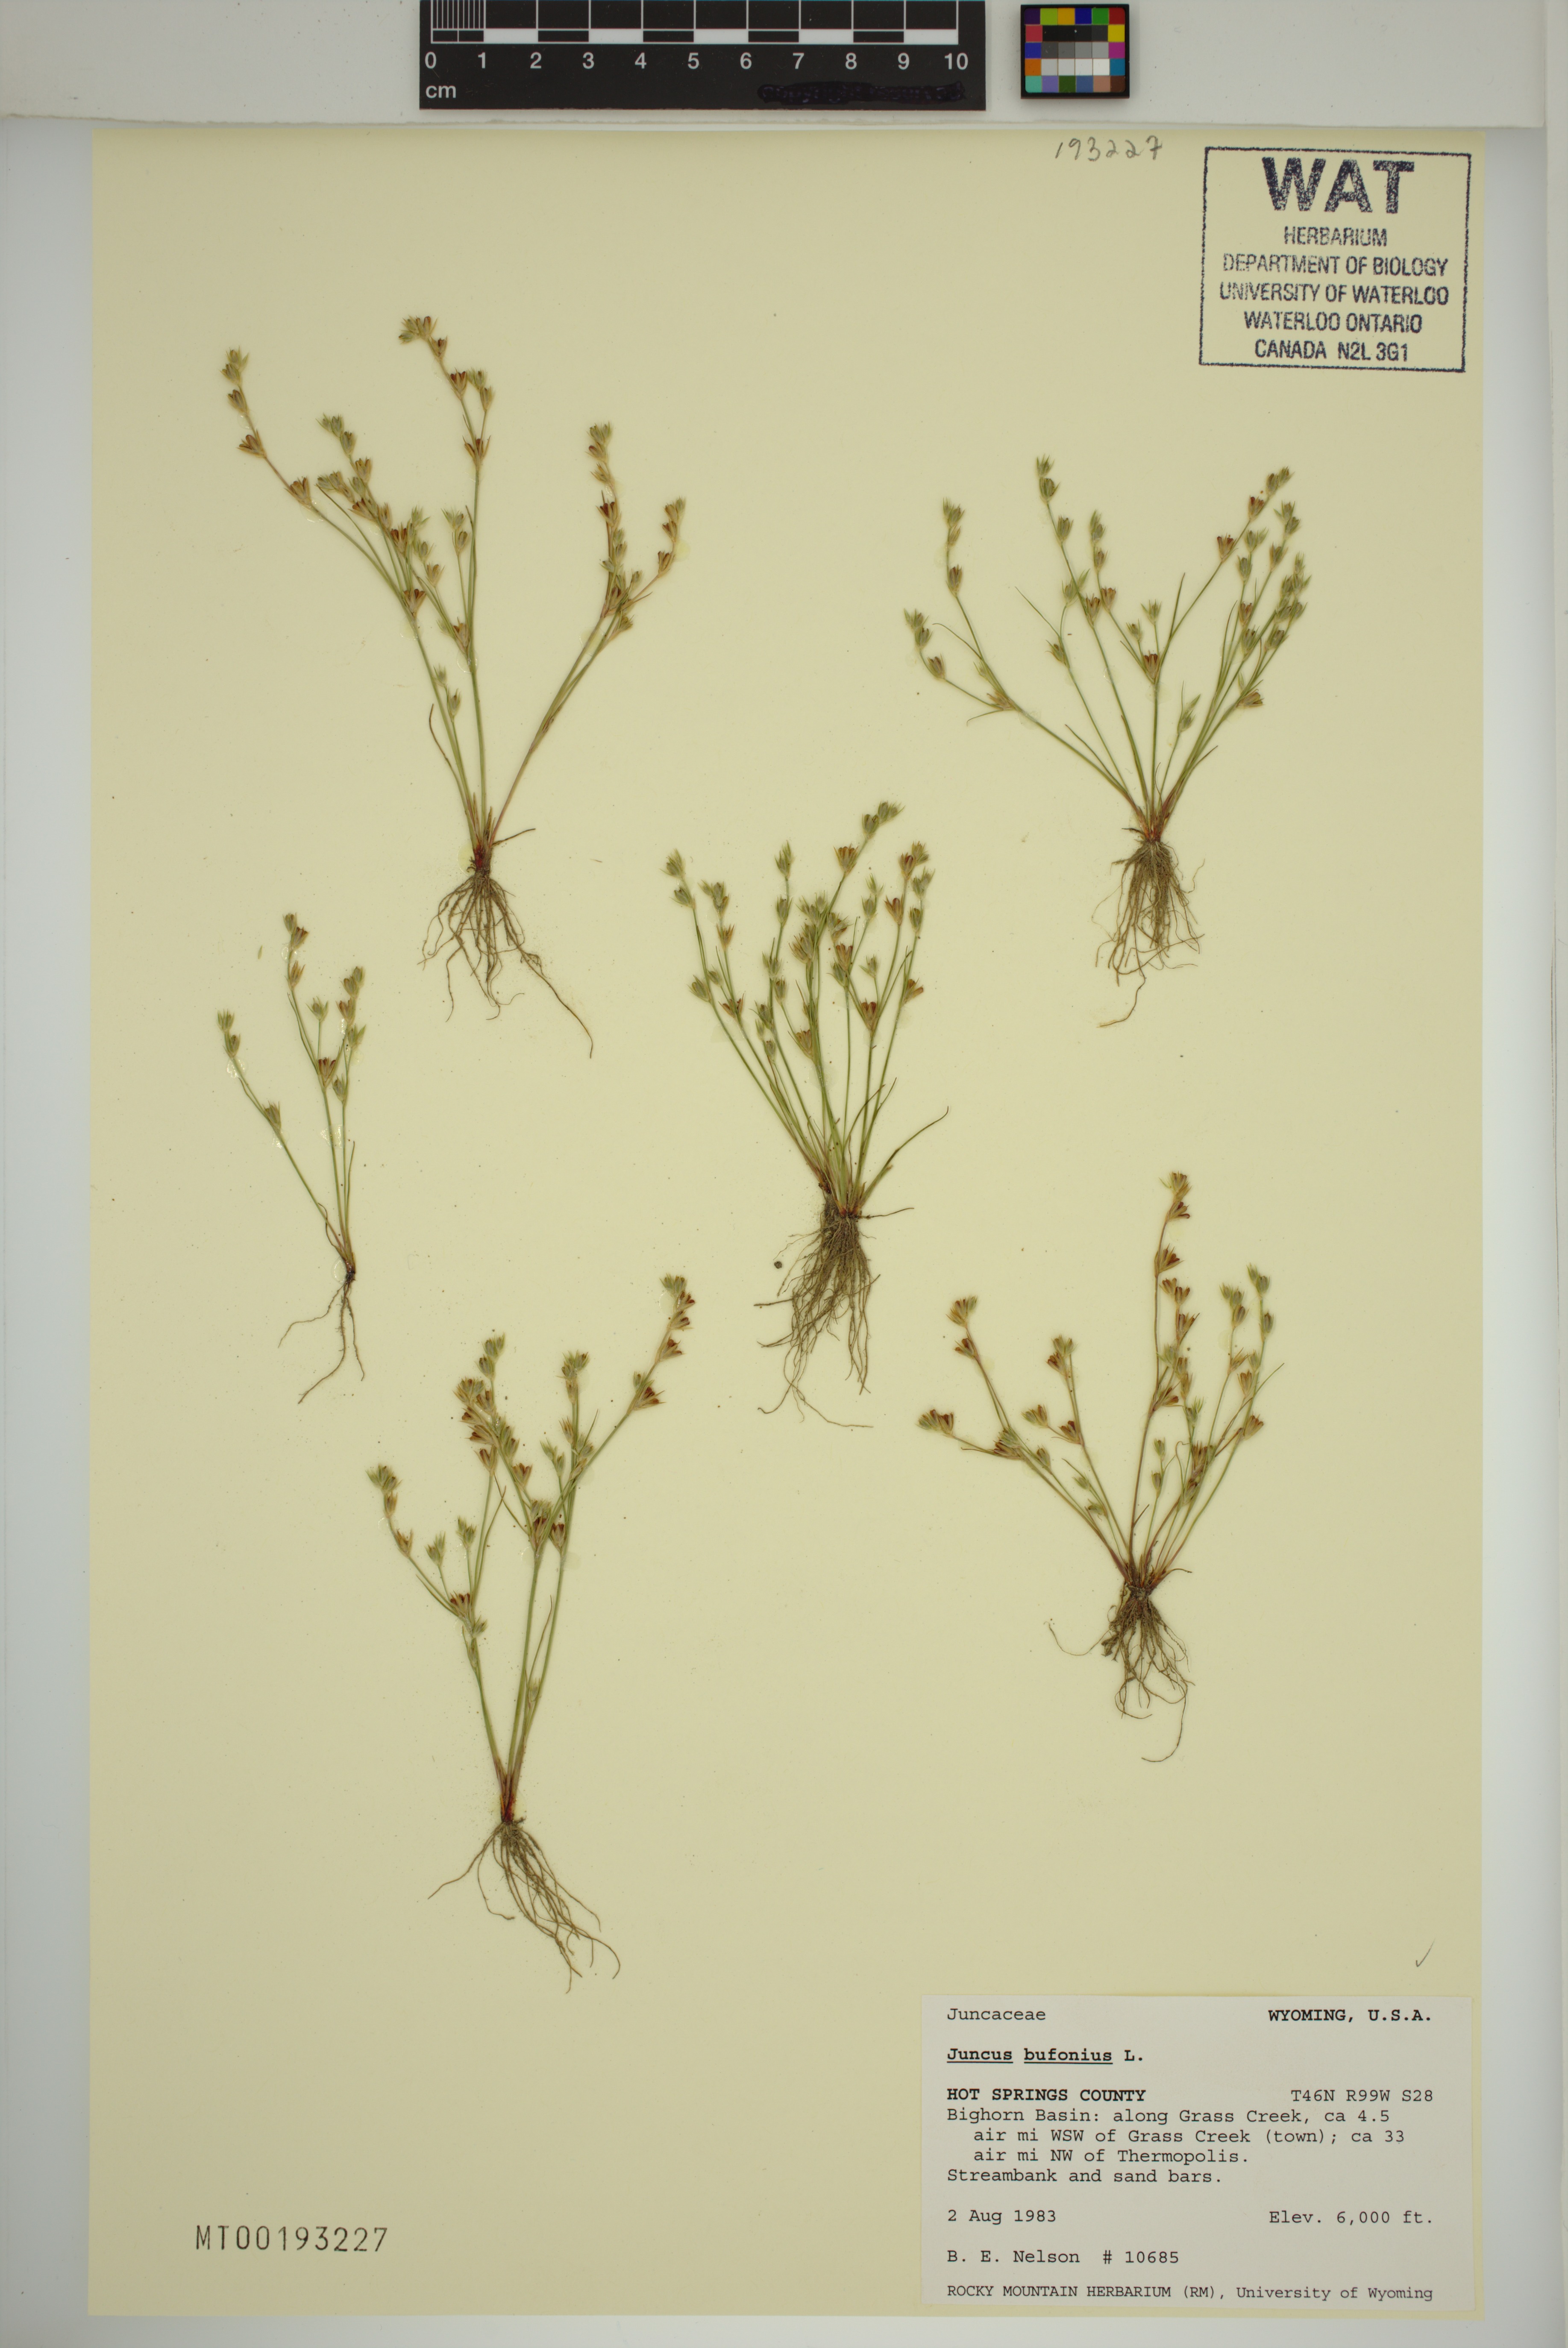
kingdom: Plantae
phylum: Tracheophyta
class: Liliopsida
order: Poales
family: Juncaceae
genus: Juncus
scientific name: Juncus bufonius
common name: Toad rush
